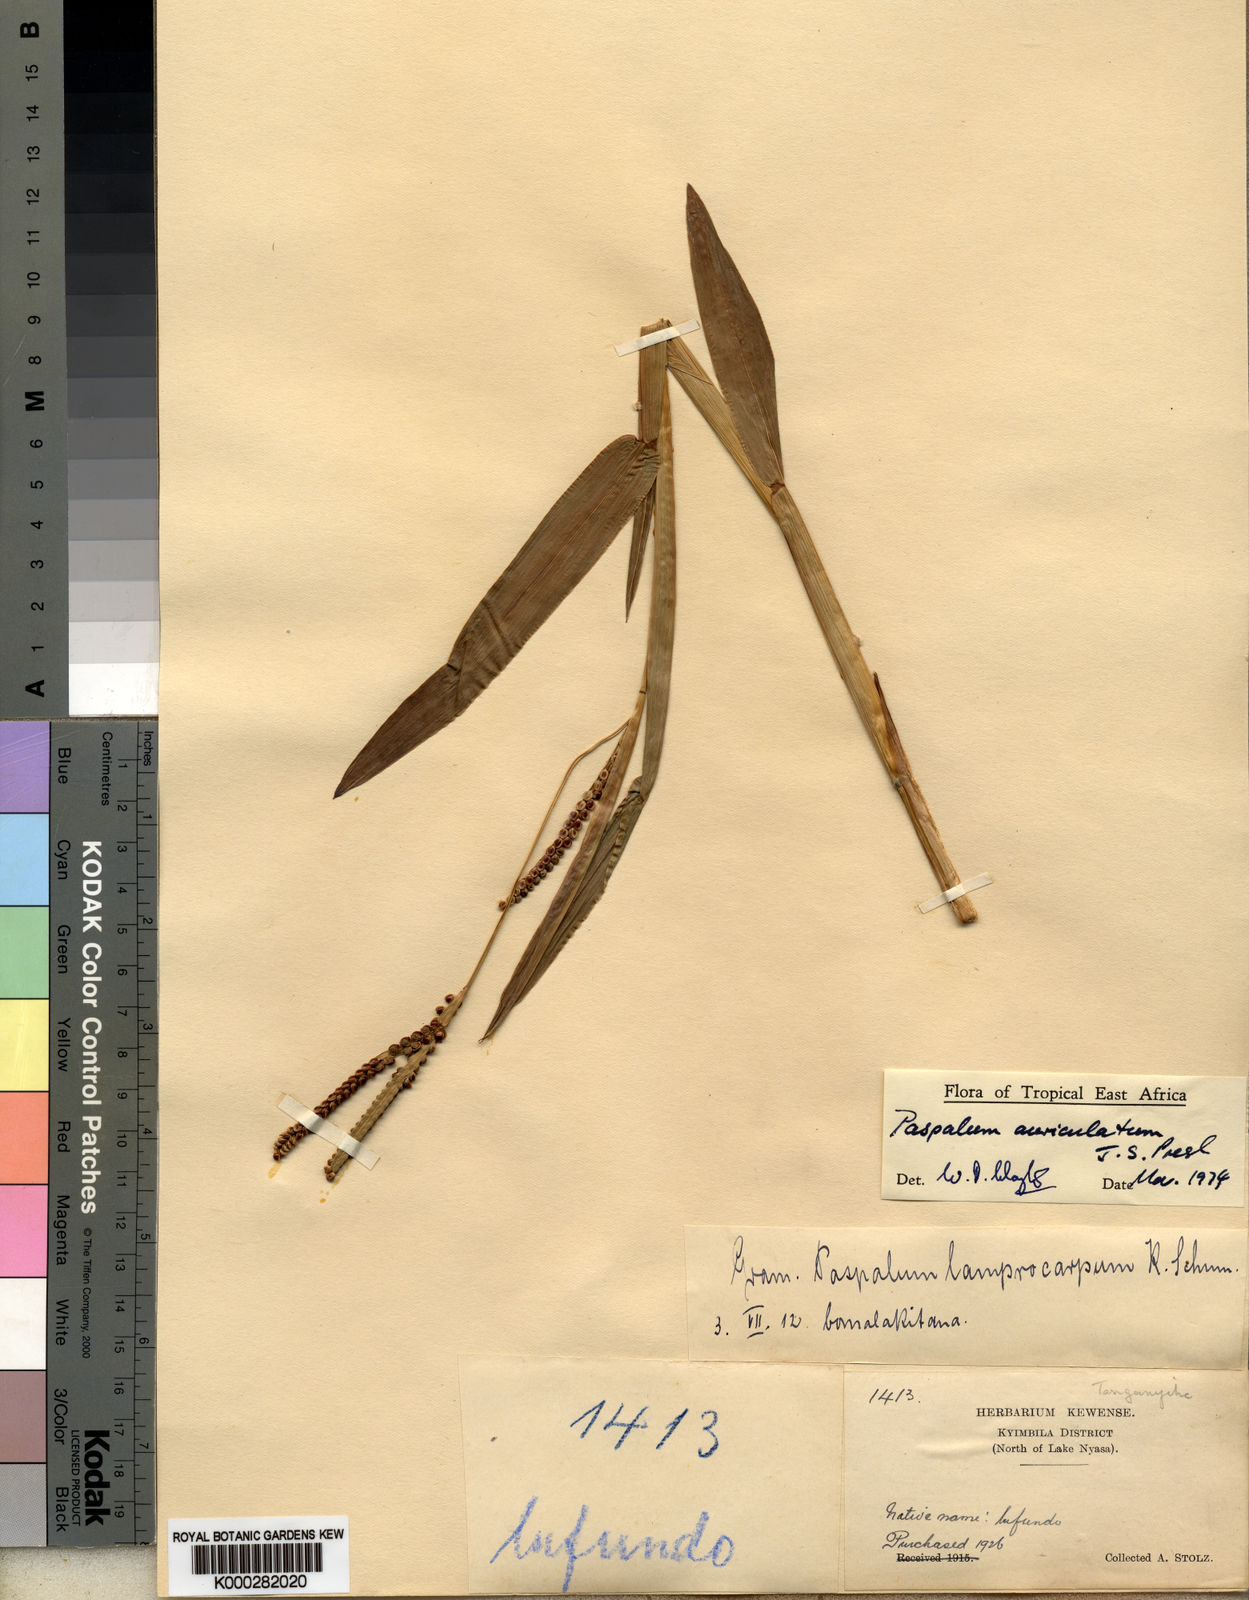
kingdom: Plantae
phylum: Tracheophyta
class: Liliopsida
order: Poales
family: Poaceae
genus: Paspalum
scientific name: Paspalum lamprocaryon
